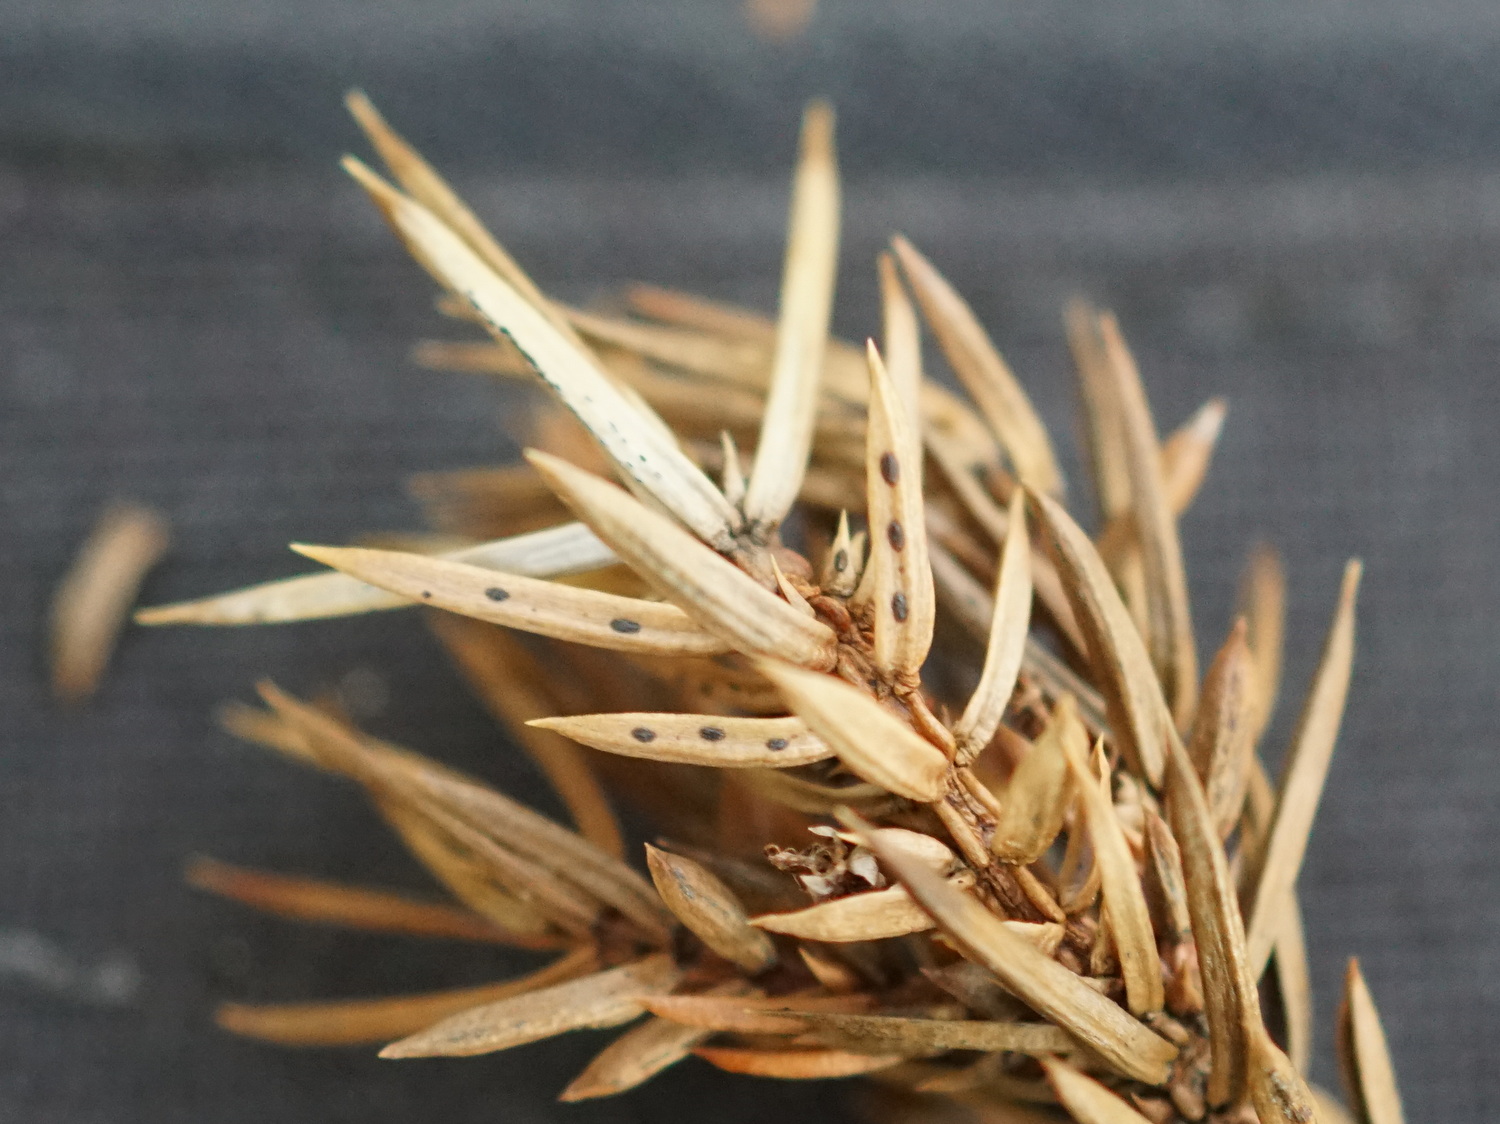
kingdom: Fungi
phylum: Ascomycota
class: Leotiomycetes
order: Rhytismatales
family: Rhytismataceae
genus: Lophodermium
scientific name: Lophodermium juniperinum
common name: ene-fureplet
